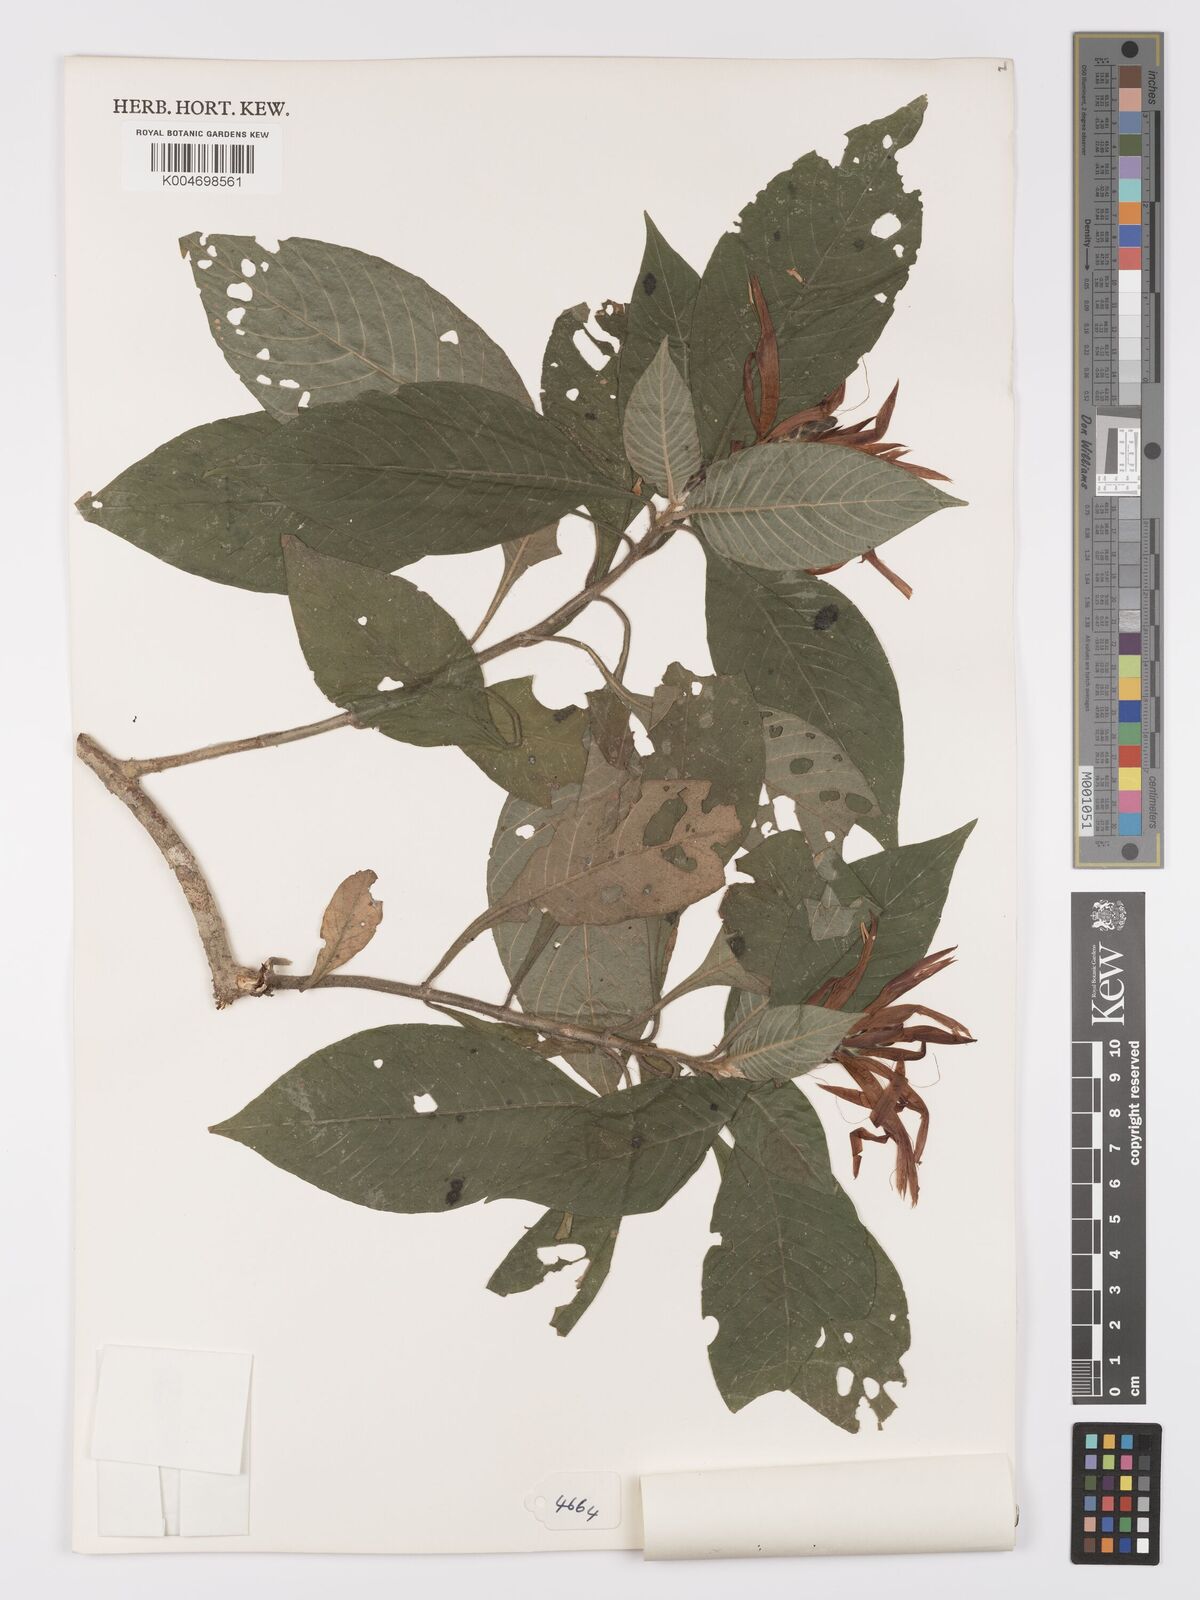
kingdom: Plantae
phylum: Tracheophyta
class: Magnoliopsida
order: Lamiales
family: Acanthaceae
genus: Aphelandra
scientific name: Aphelandra glabrata
